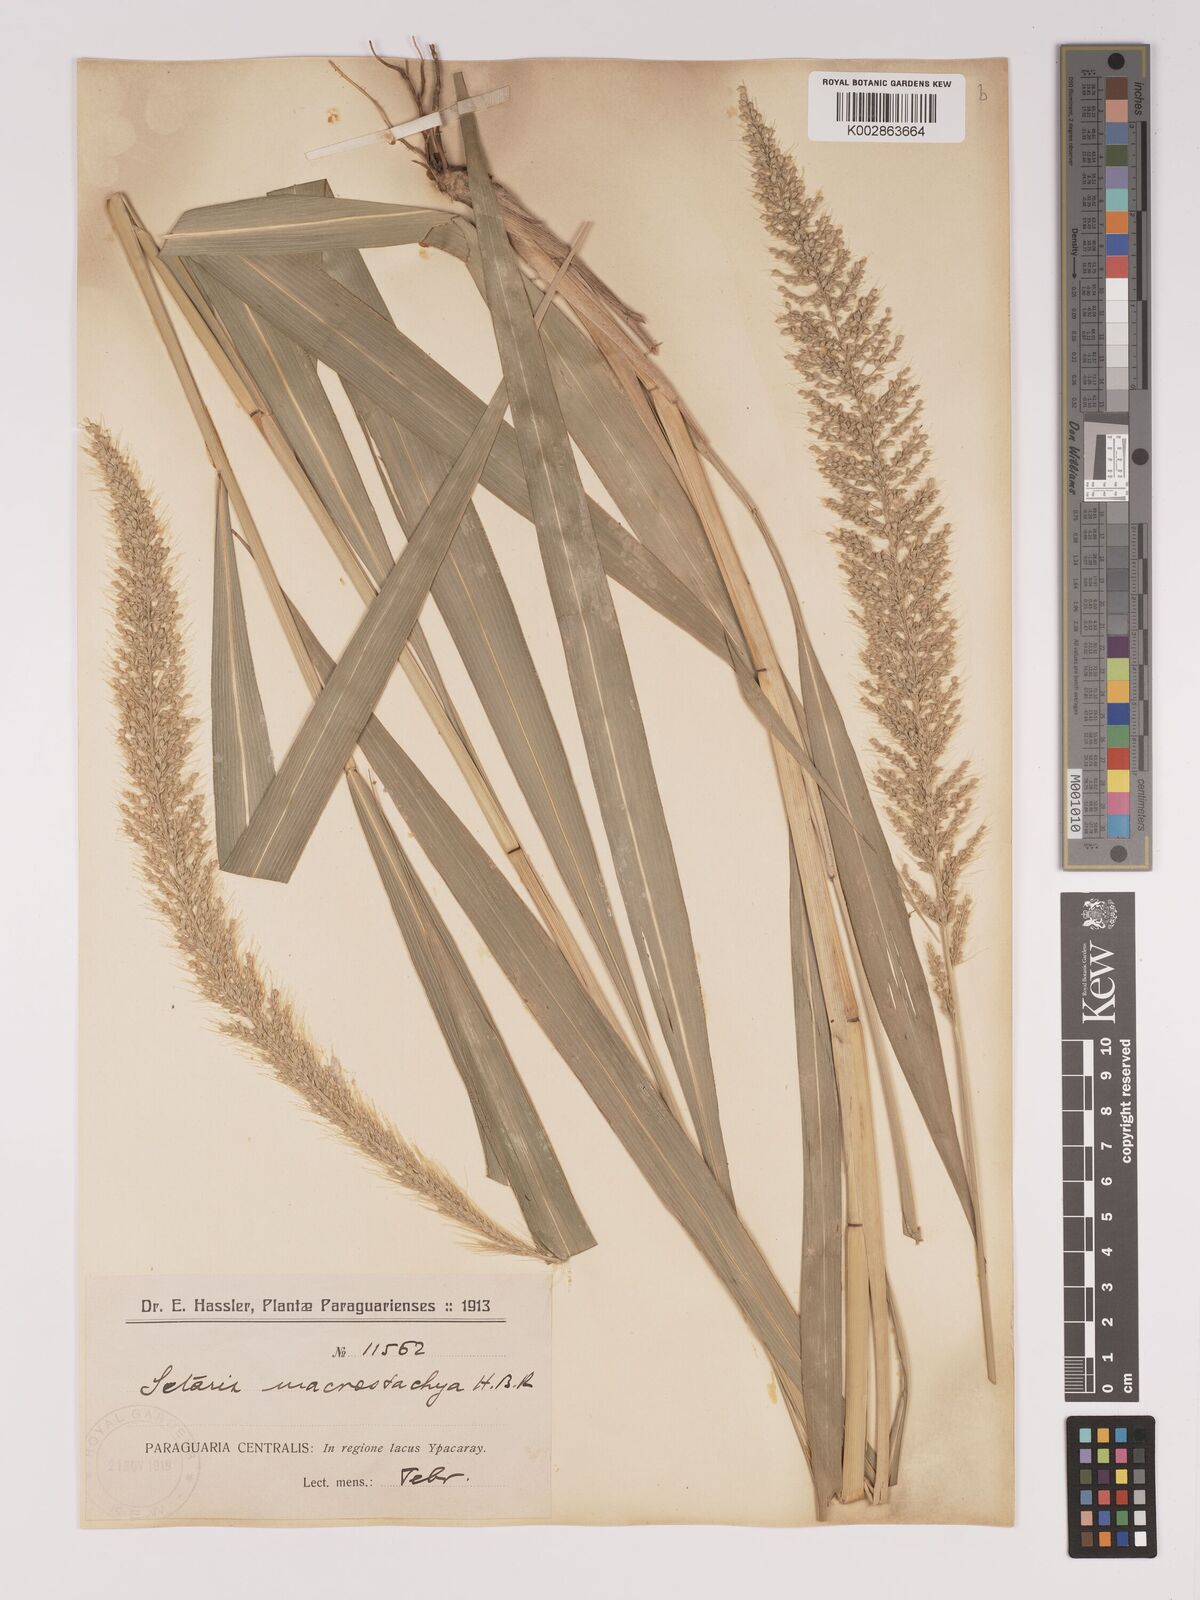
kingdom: Plantae
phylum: Tracheophyta
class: Liliopsida
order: Poales
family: Poaceae
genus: Setaria
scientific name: Setaria vulpiseta
